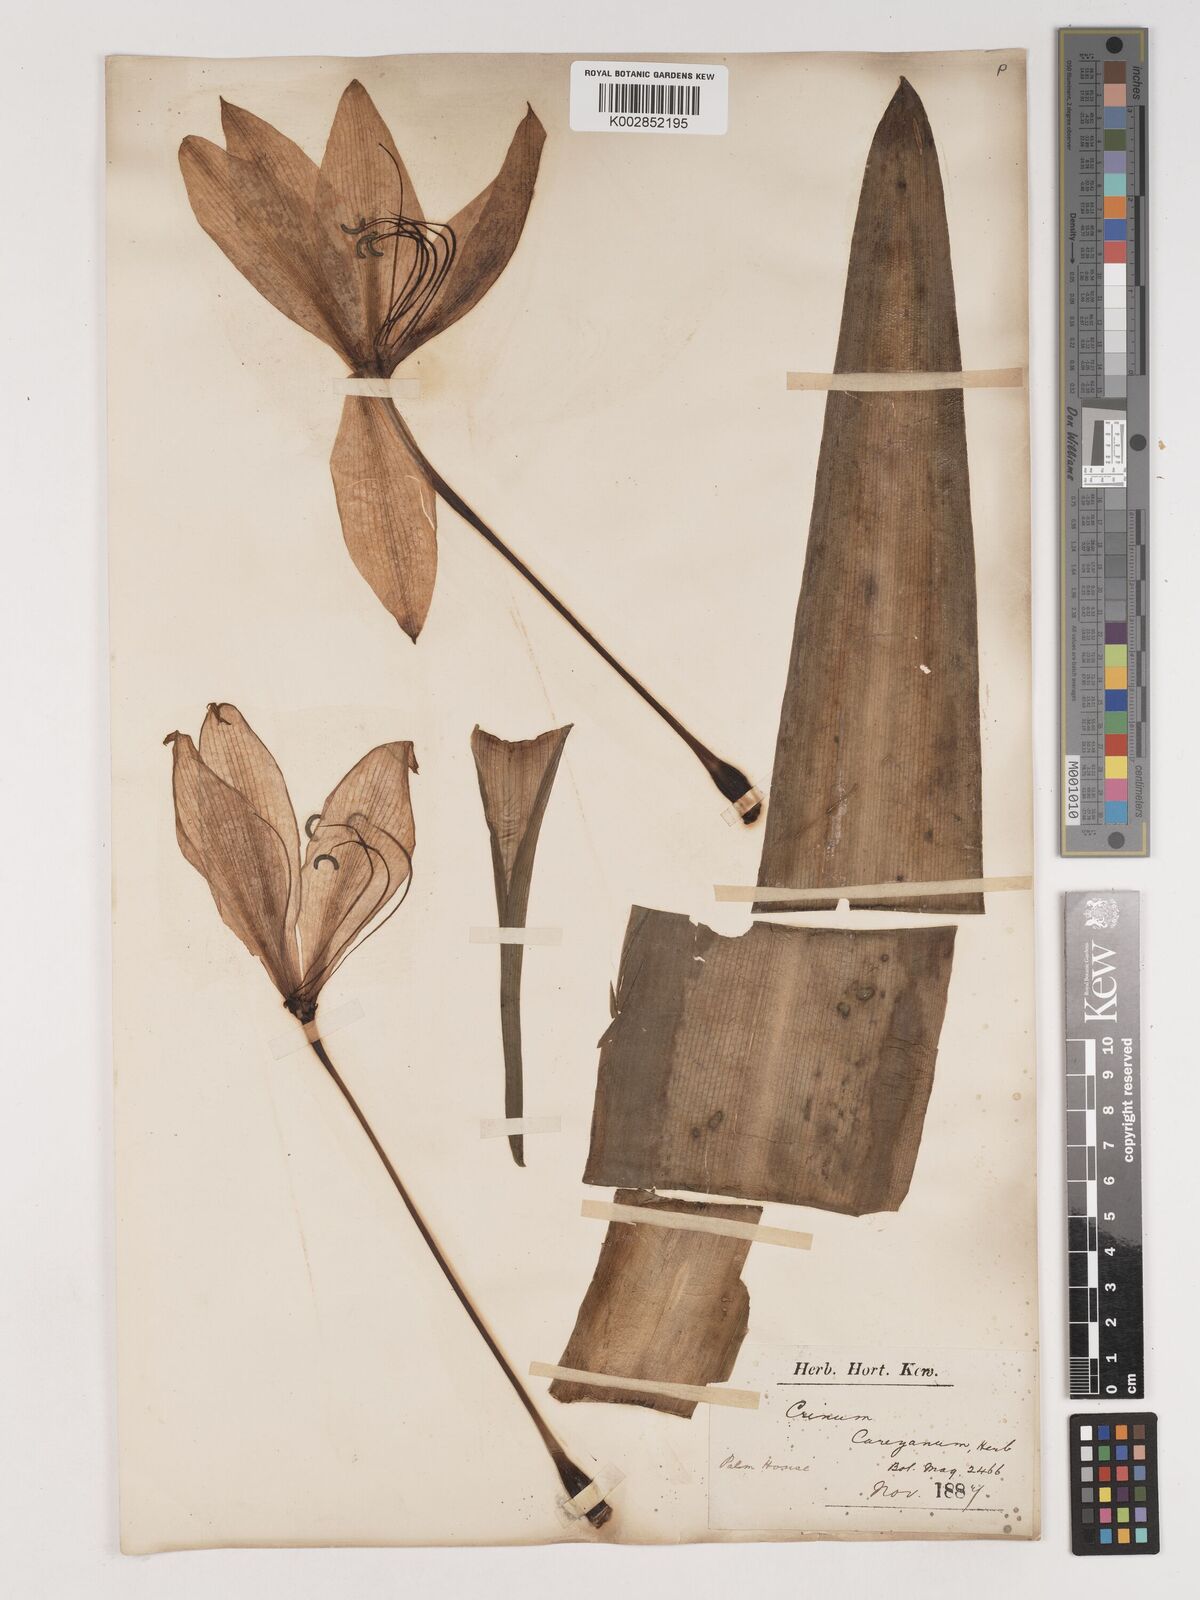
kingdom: Plantae
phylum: Tracheophyta
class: Liliopsida
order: Asparagales
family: Amaryllidaceae
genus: Crinum
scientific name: Crinum latifolium
